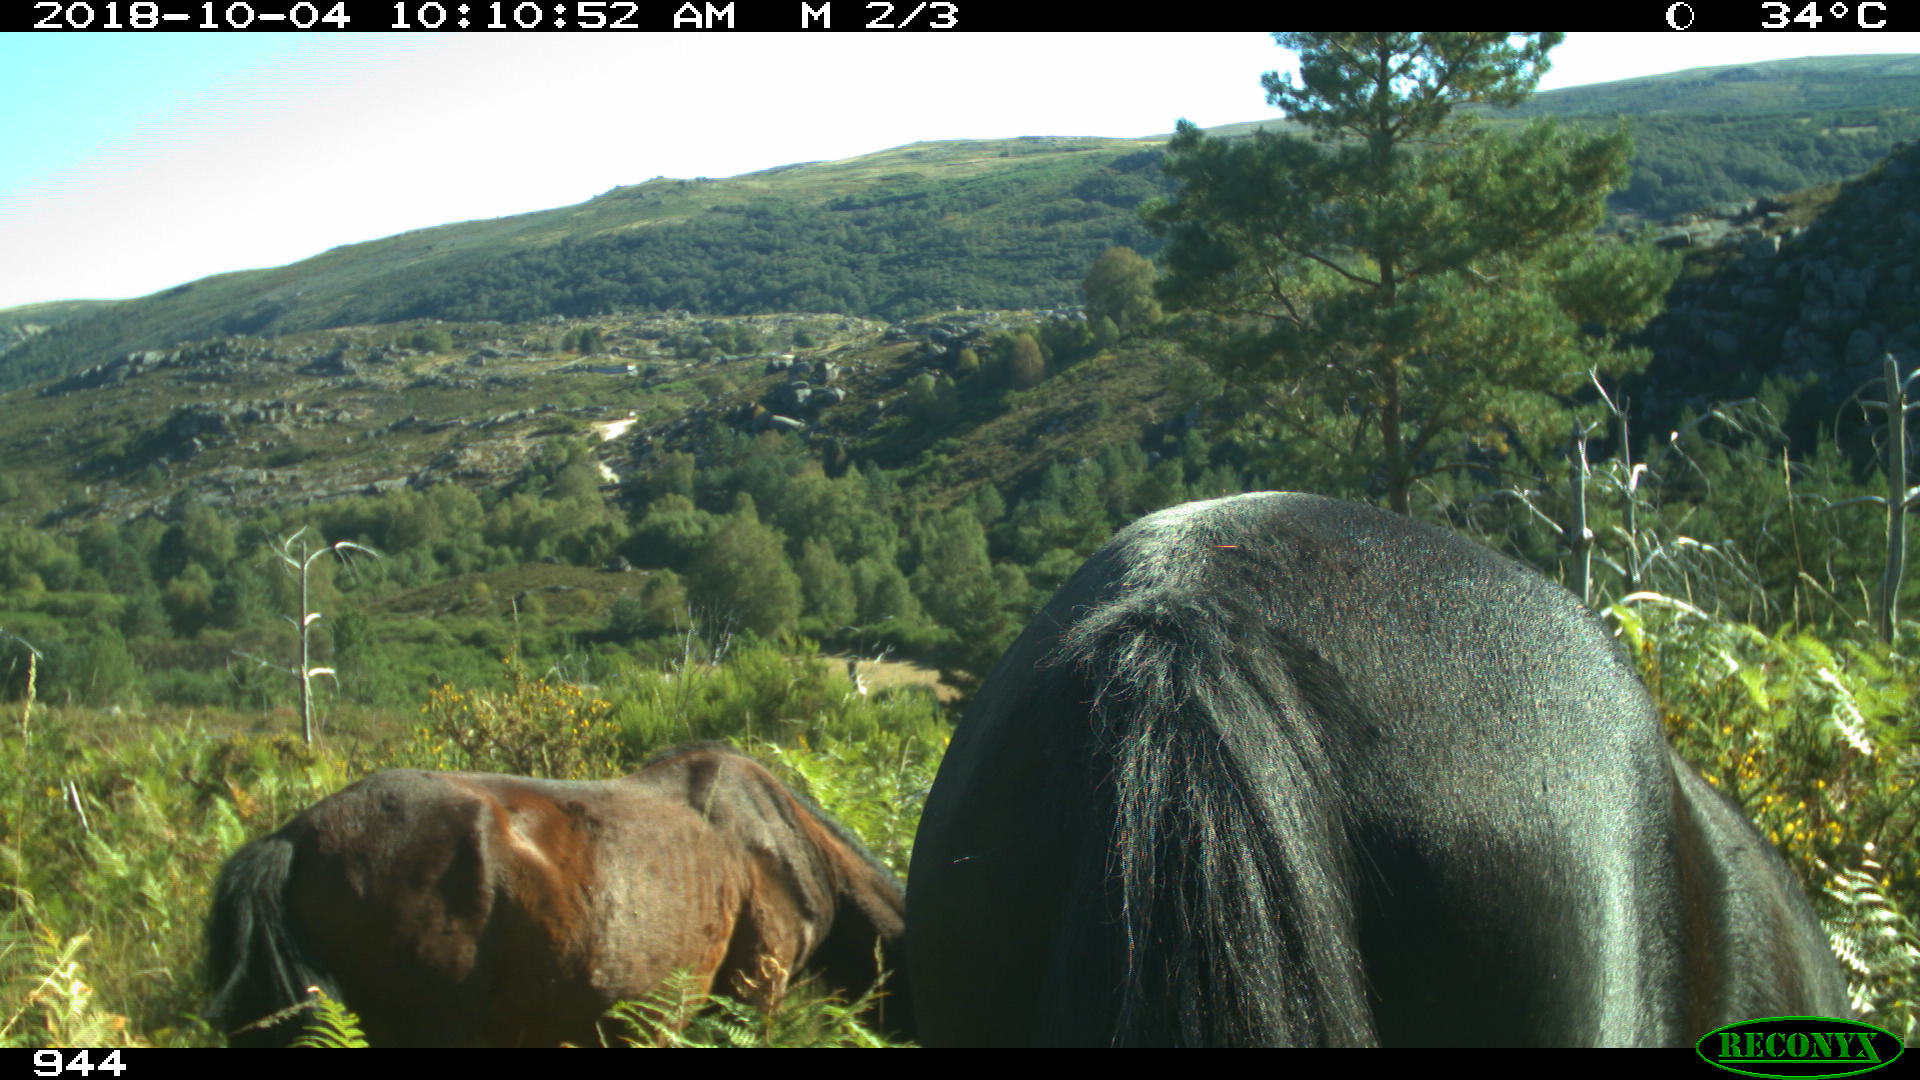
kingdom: Animalia
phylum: Chordata
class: Mammalia
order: Perissodactyla
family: Equidae
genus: Equus
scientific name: Equus caballus
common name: Horse
